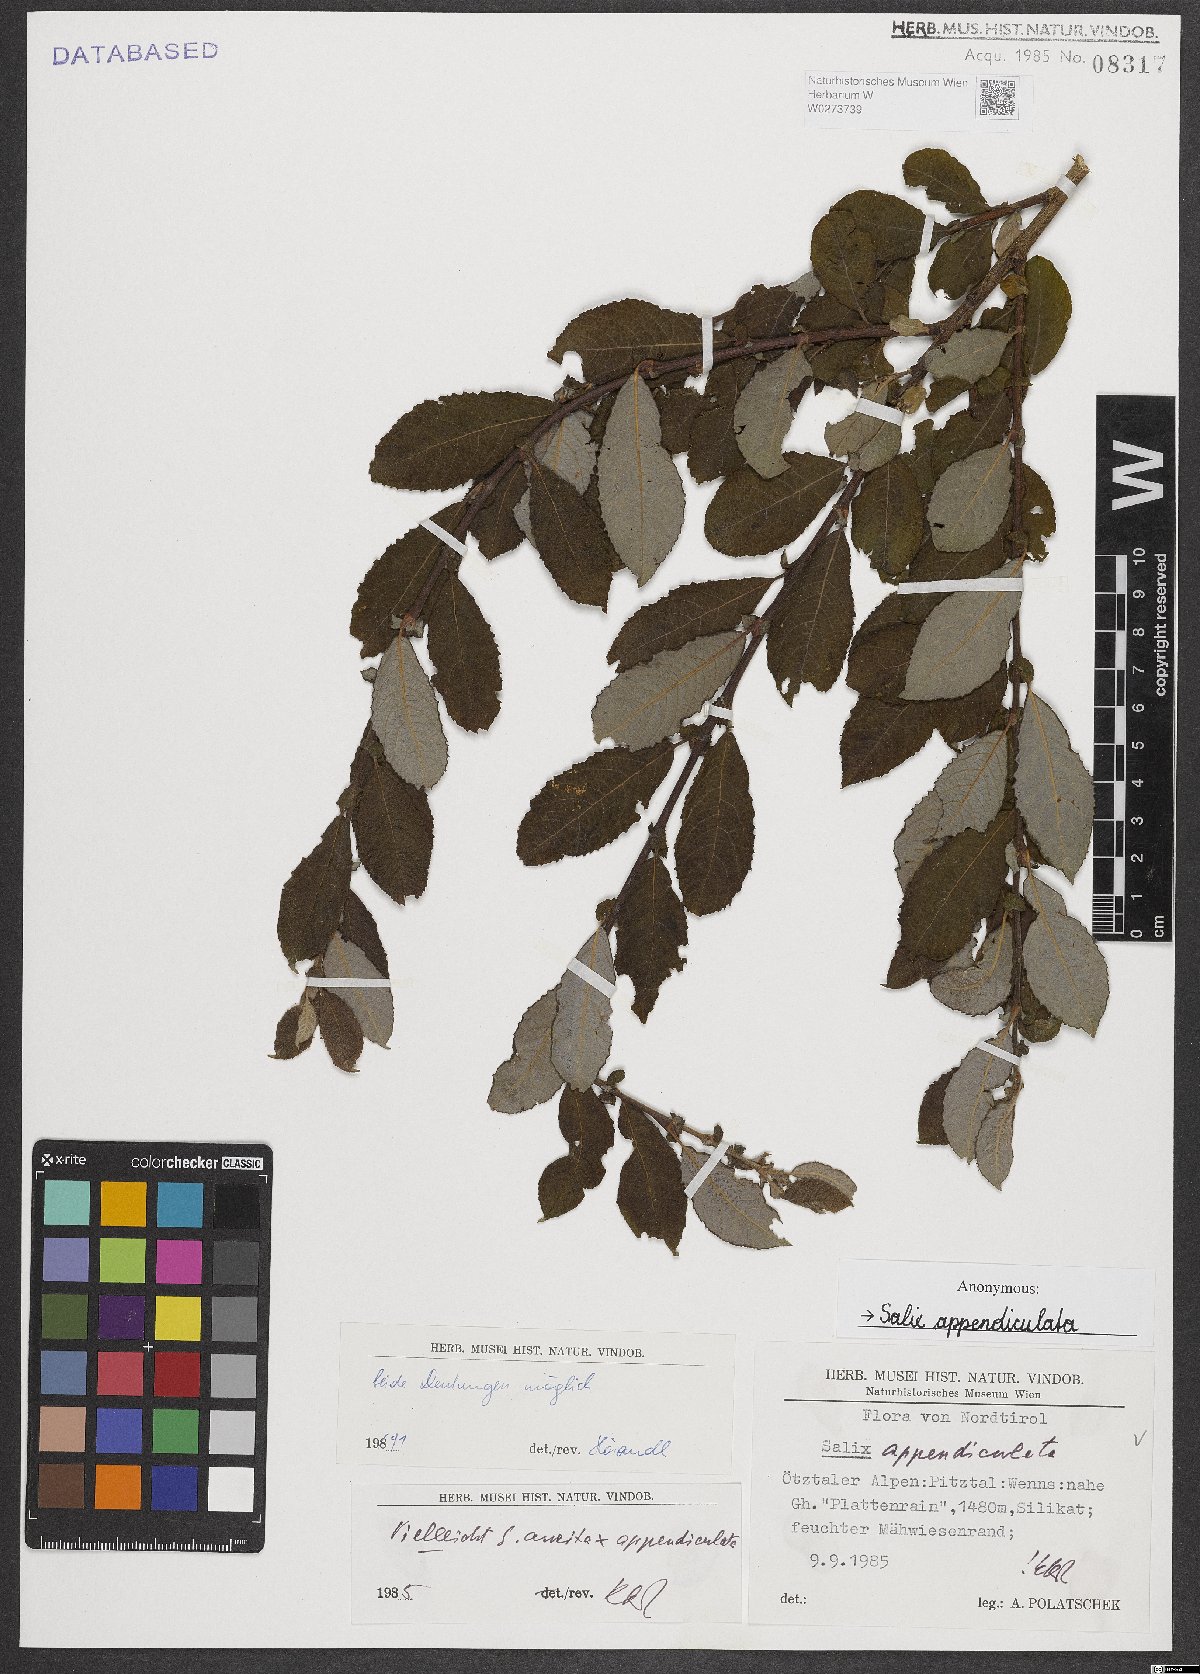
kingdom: Plantae
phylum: Tracheophyta
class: Magnoliopsida
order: Malpighiales
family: Salicaceae
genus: Salix
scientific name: Salix appendiculata
